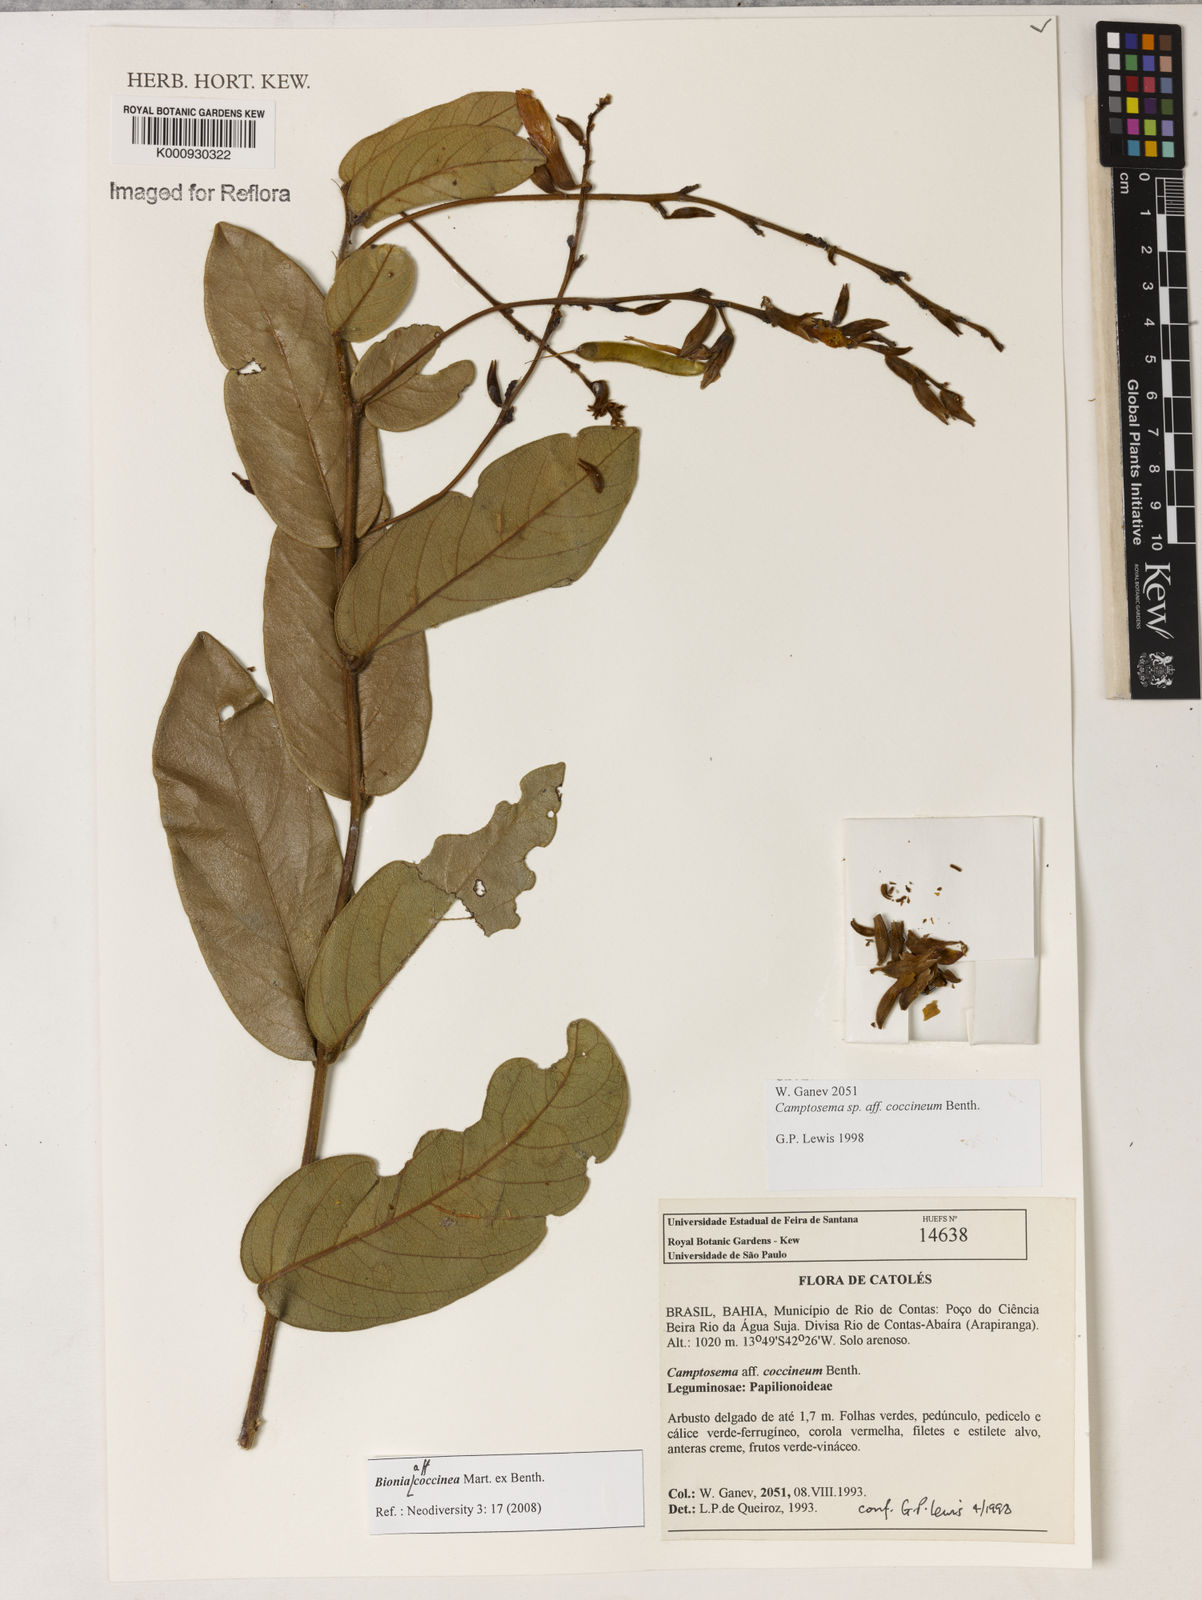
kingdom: Plantae
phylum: Tracheophyta
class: Magnoliopsida
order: Fabales
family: Fabaceae
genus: Camptosema
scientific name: Camptosema coccineum
